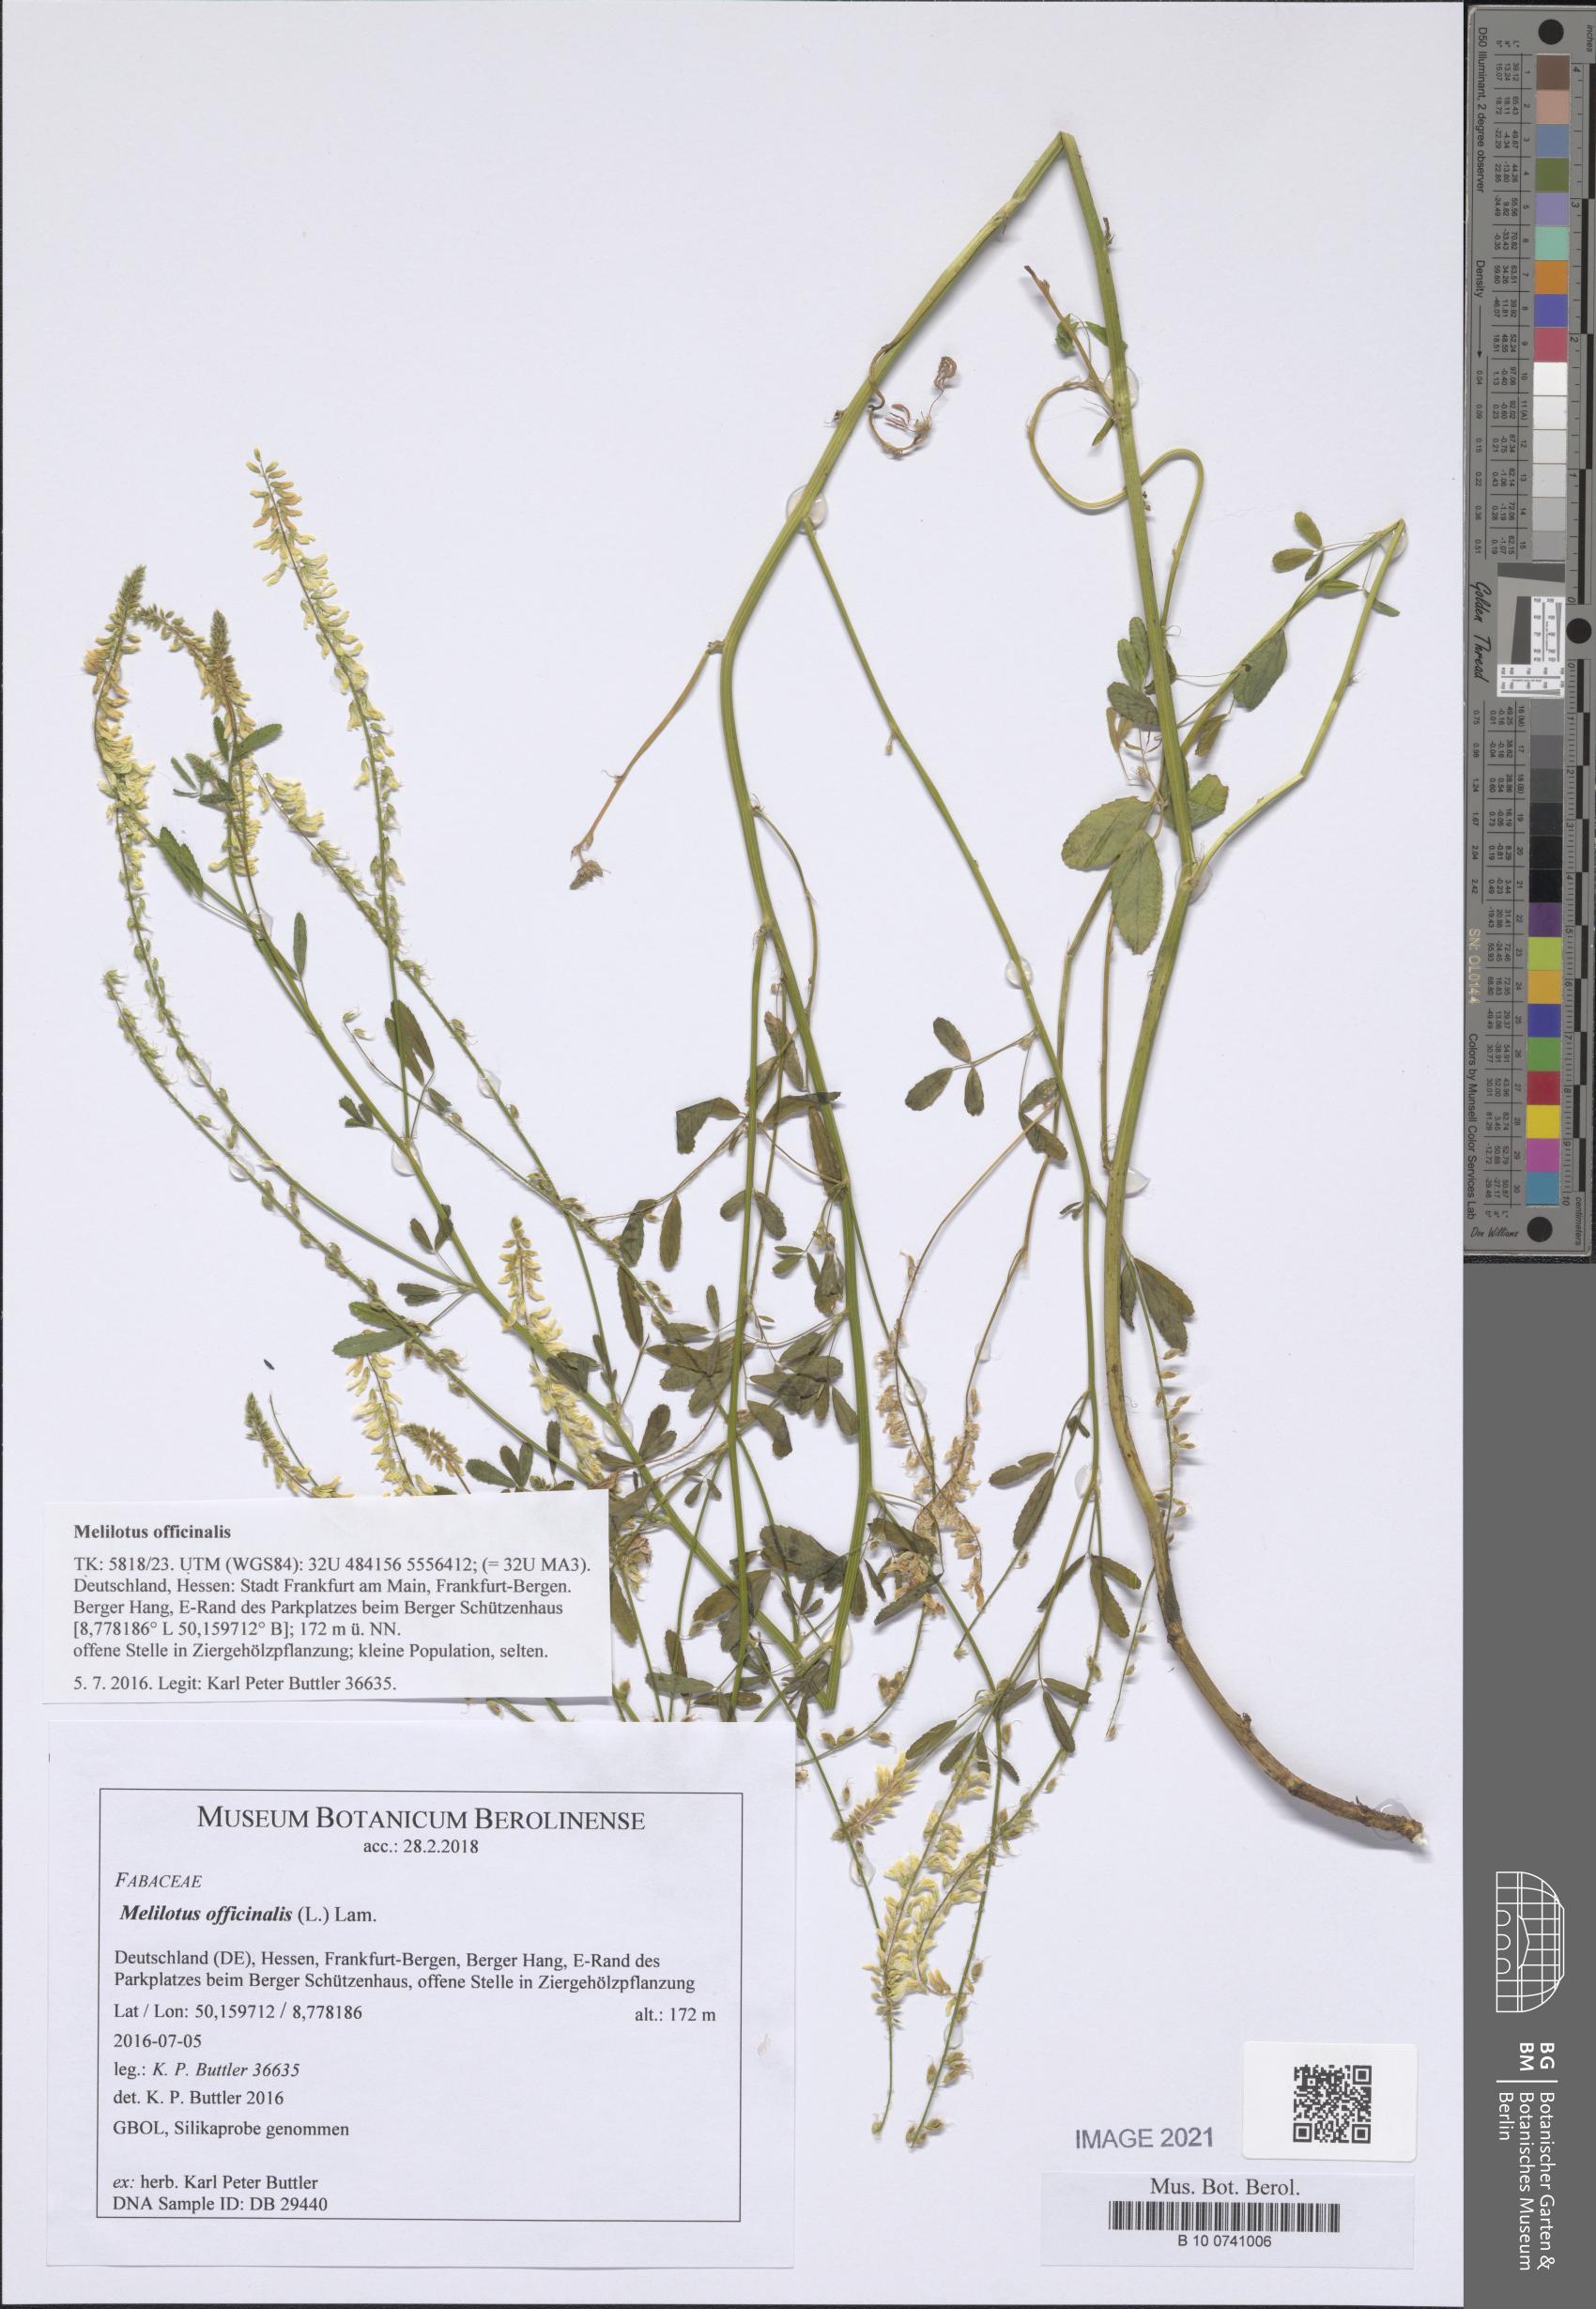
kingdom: Plantae
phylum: Tracheophyta
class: Magnoliopsida
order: Fabales
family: Fabaceae
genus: Melilotus
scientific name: Melilotus officinalis
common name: Sweetclover
